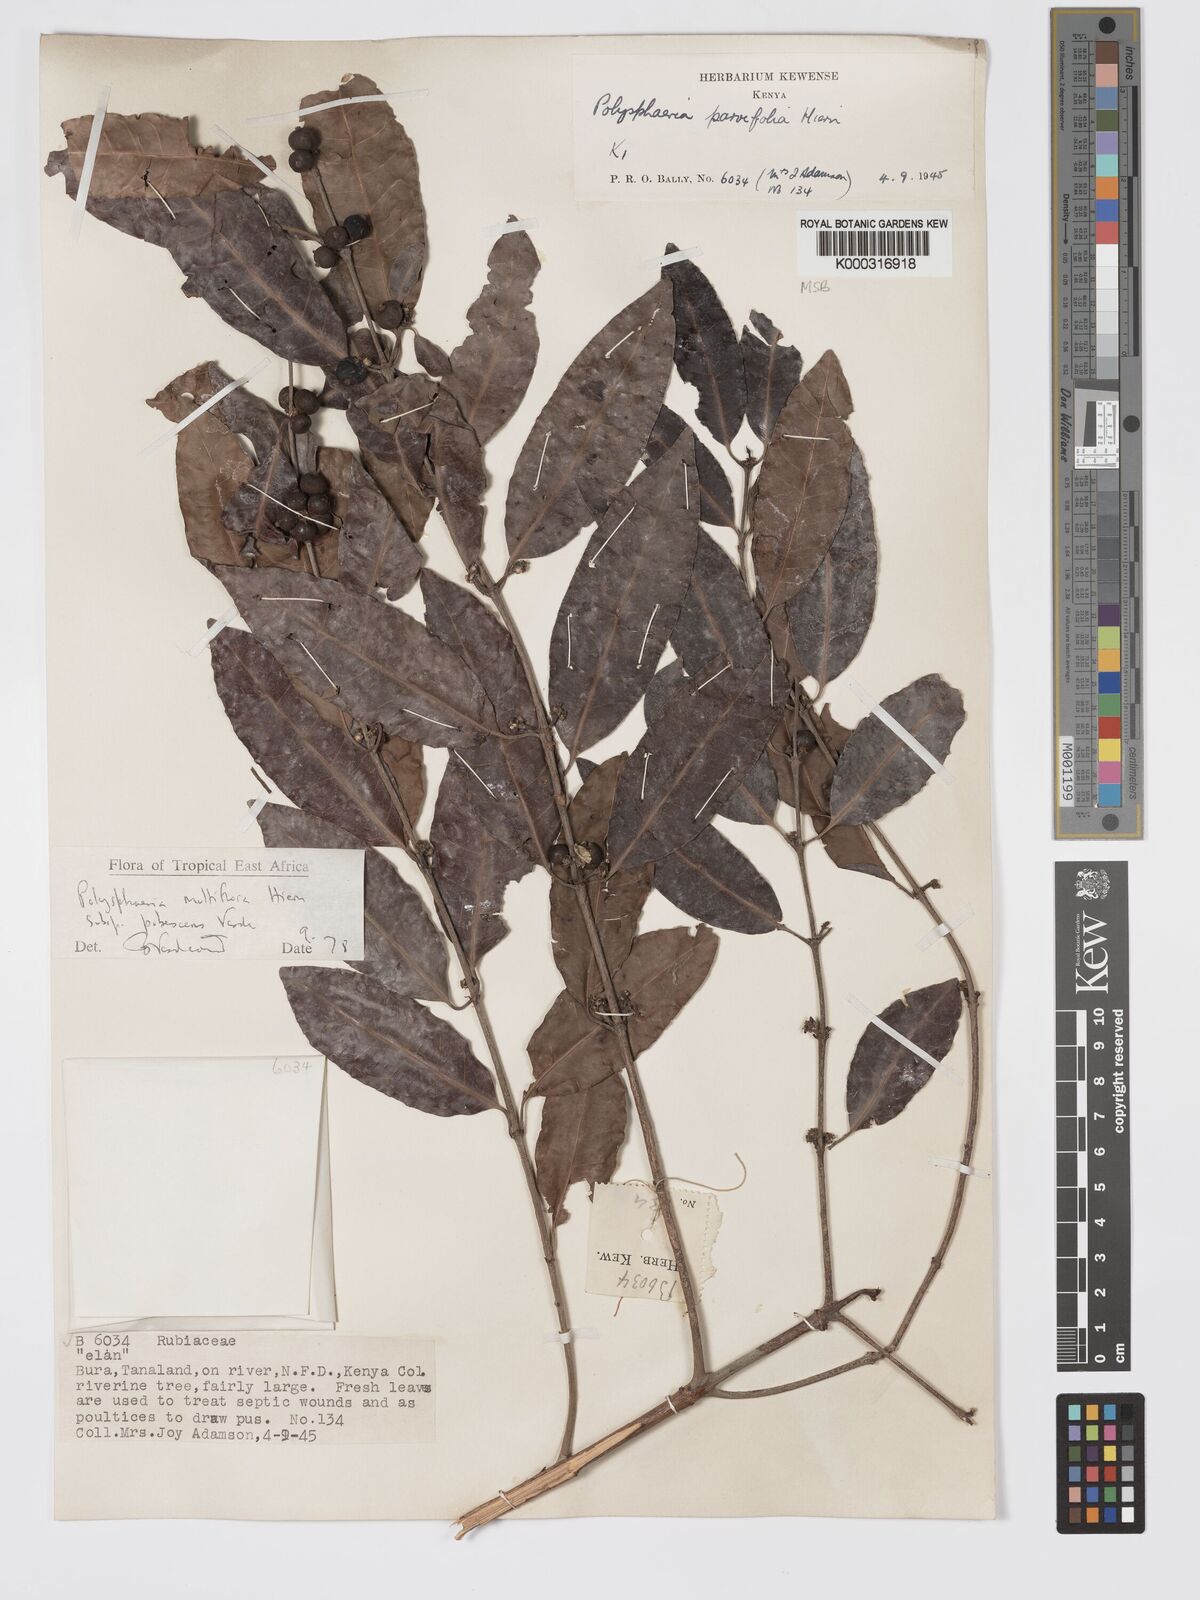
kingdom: Plantae
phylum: Tracheophyta
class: Magnoliopsida
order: Gentianales
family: Rubiaceae
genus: Polysphaeria
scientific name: Polysphaeria multiflora
